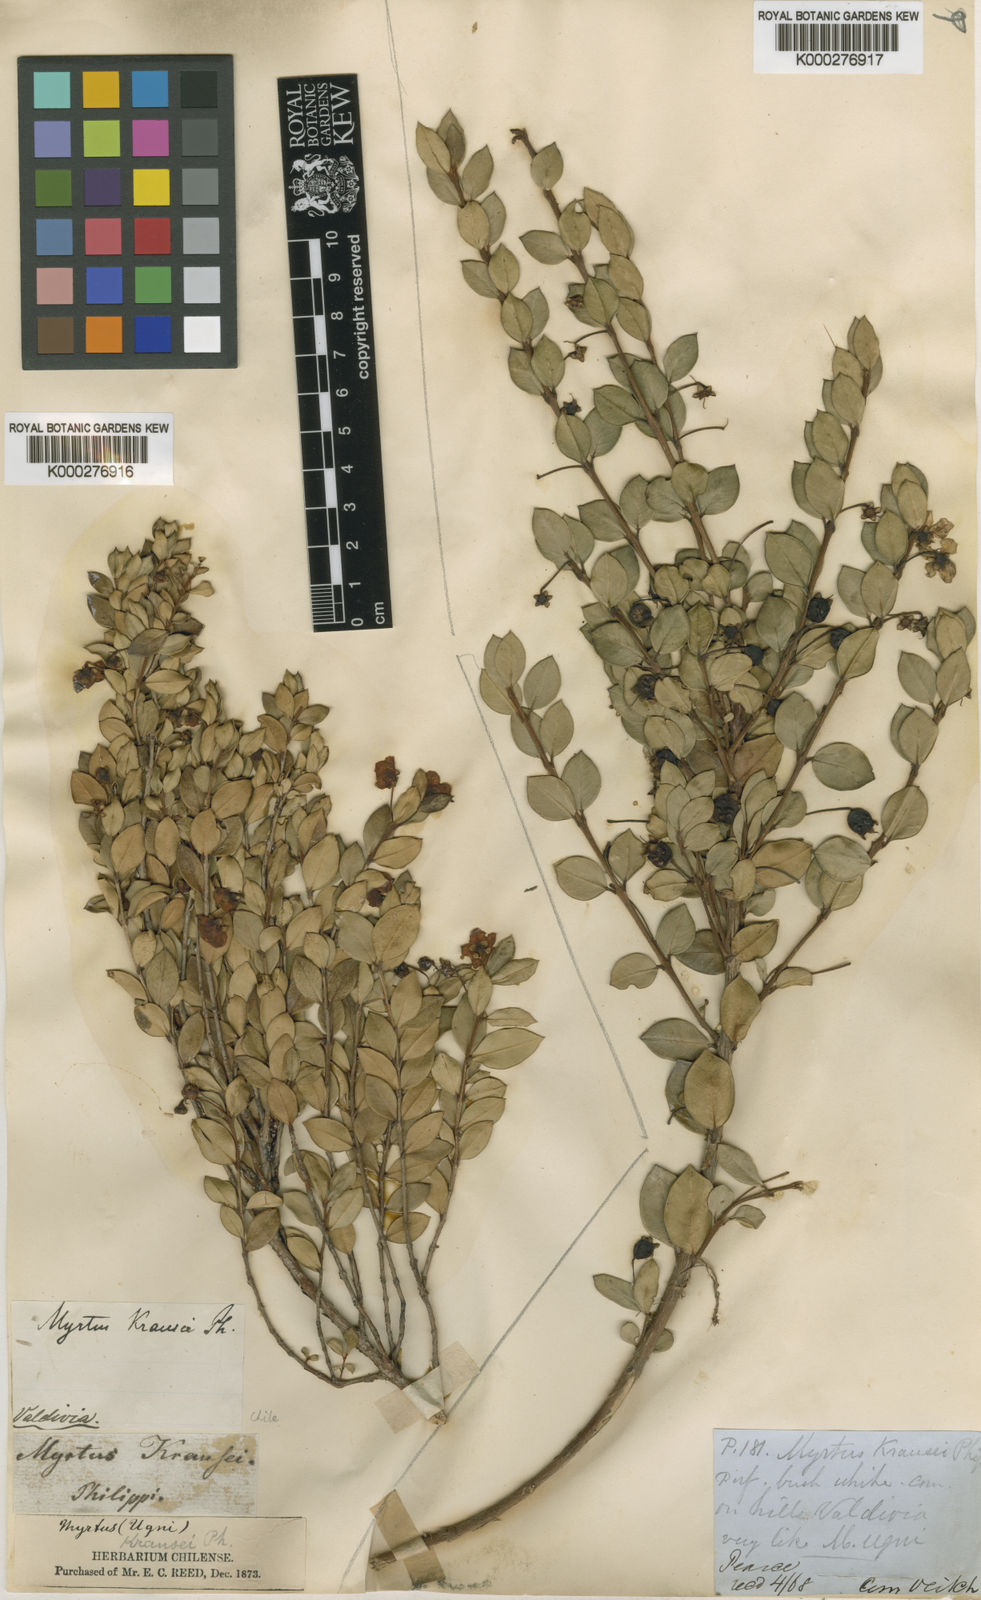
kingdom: Plantae
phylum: Tracheophyta
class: Magnoliopsida
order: Myrtales
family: Myrtaceae
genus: Ugni
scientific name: Ugni candollei
